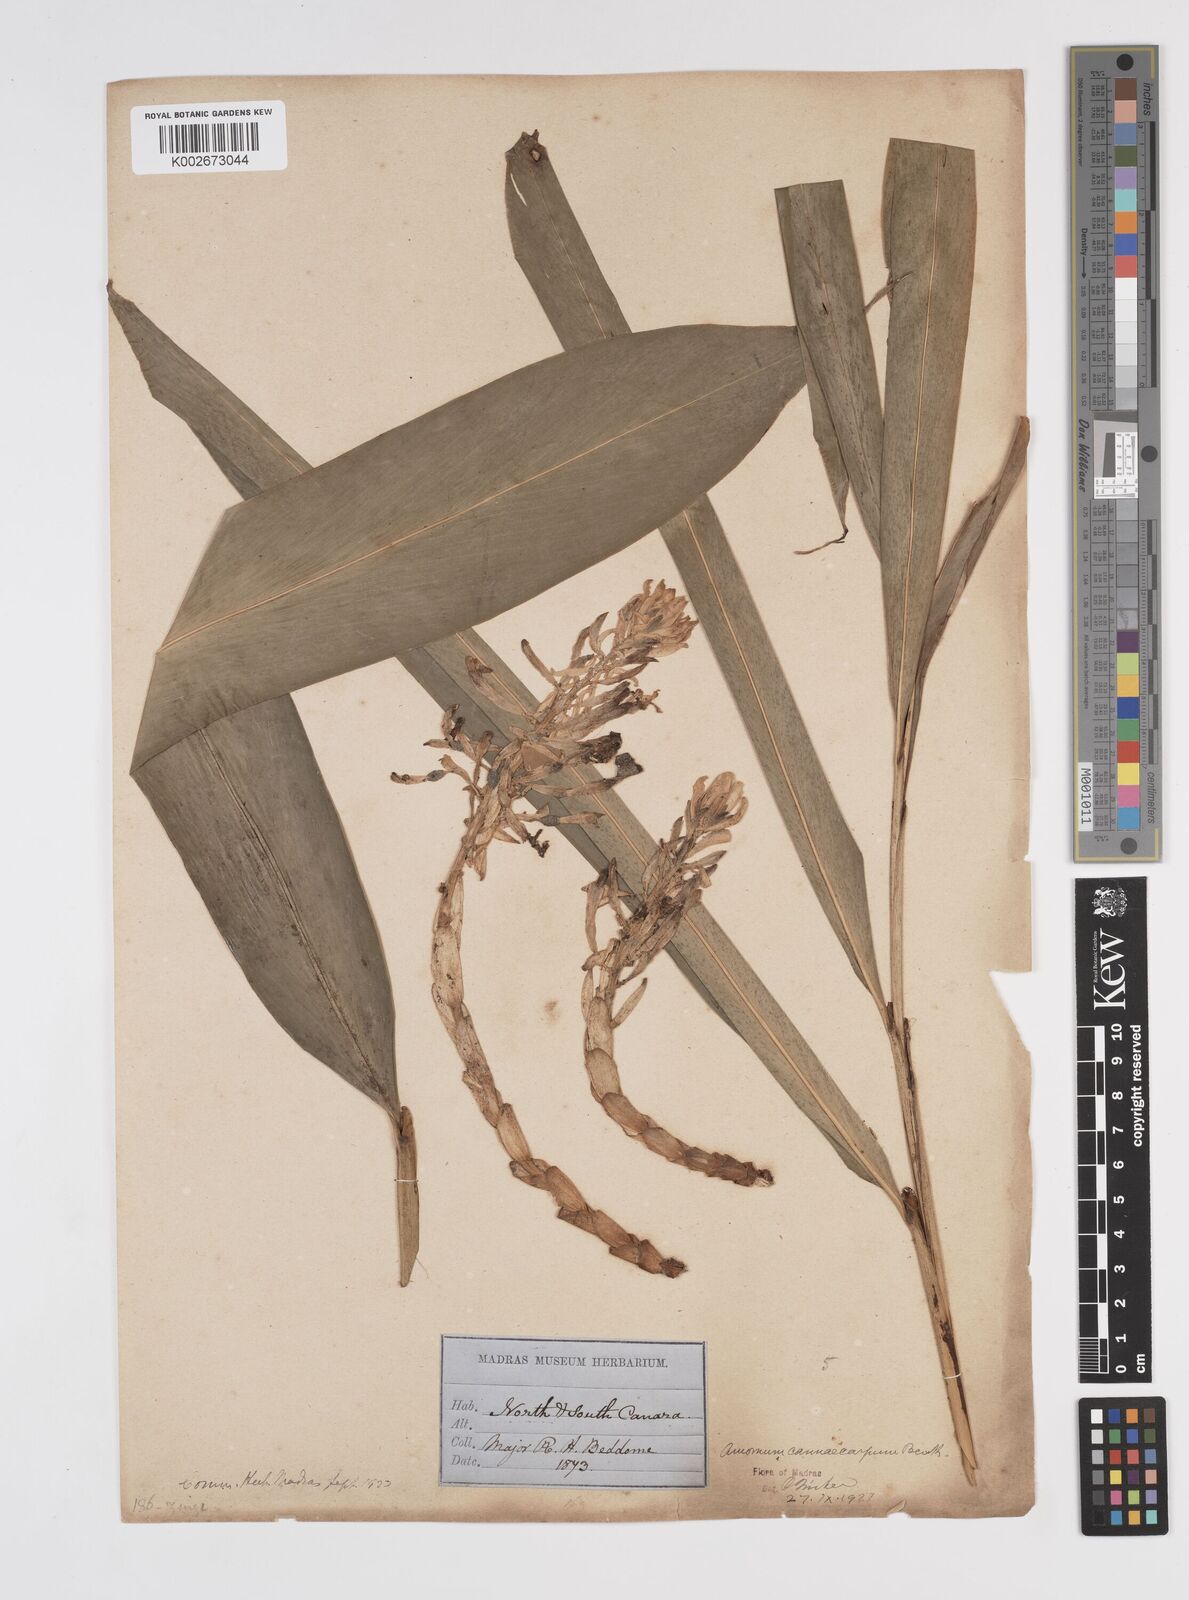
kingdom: Plantae
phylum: Tracheophyta
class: Liliopsida
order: Zingiberales
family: Zingiberaceae
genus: Meistera
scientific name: Meistera cannicarpa
